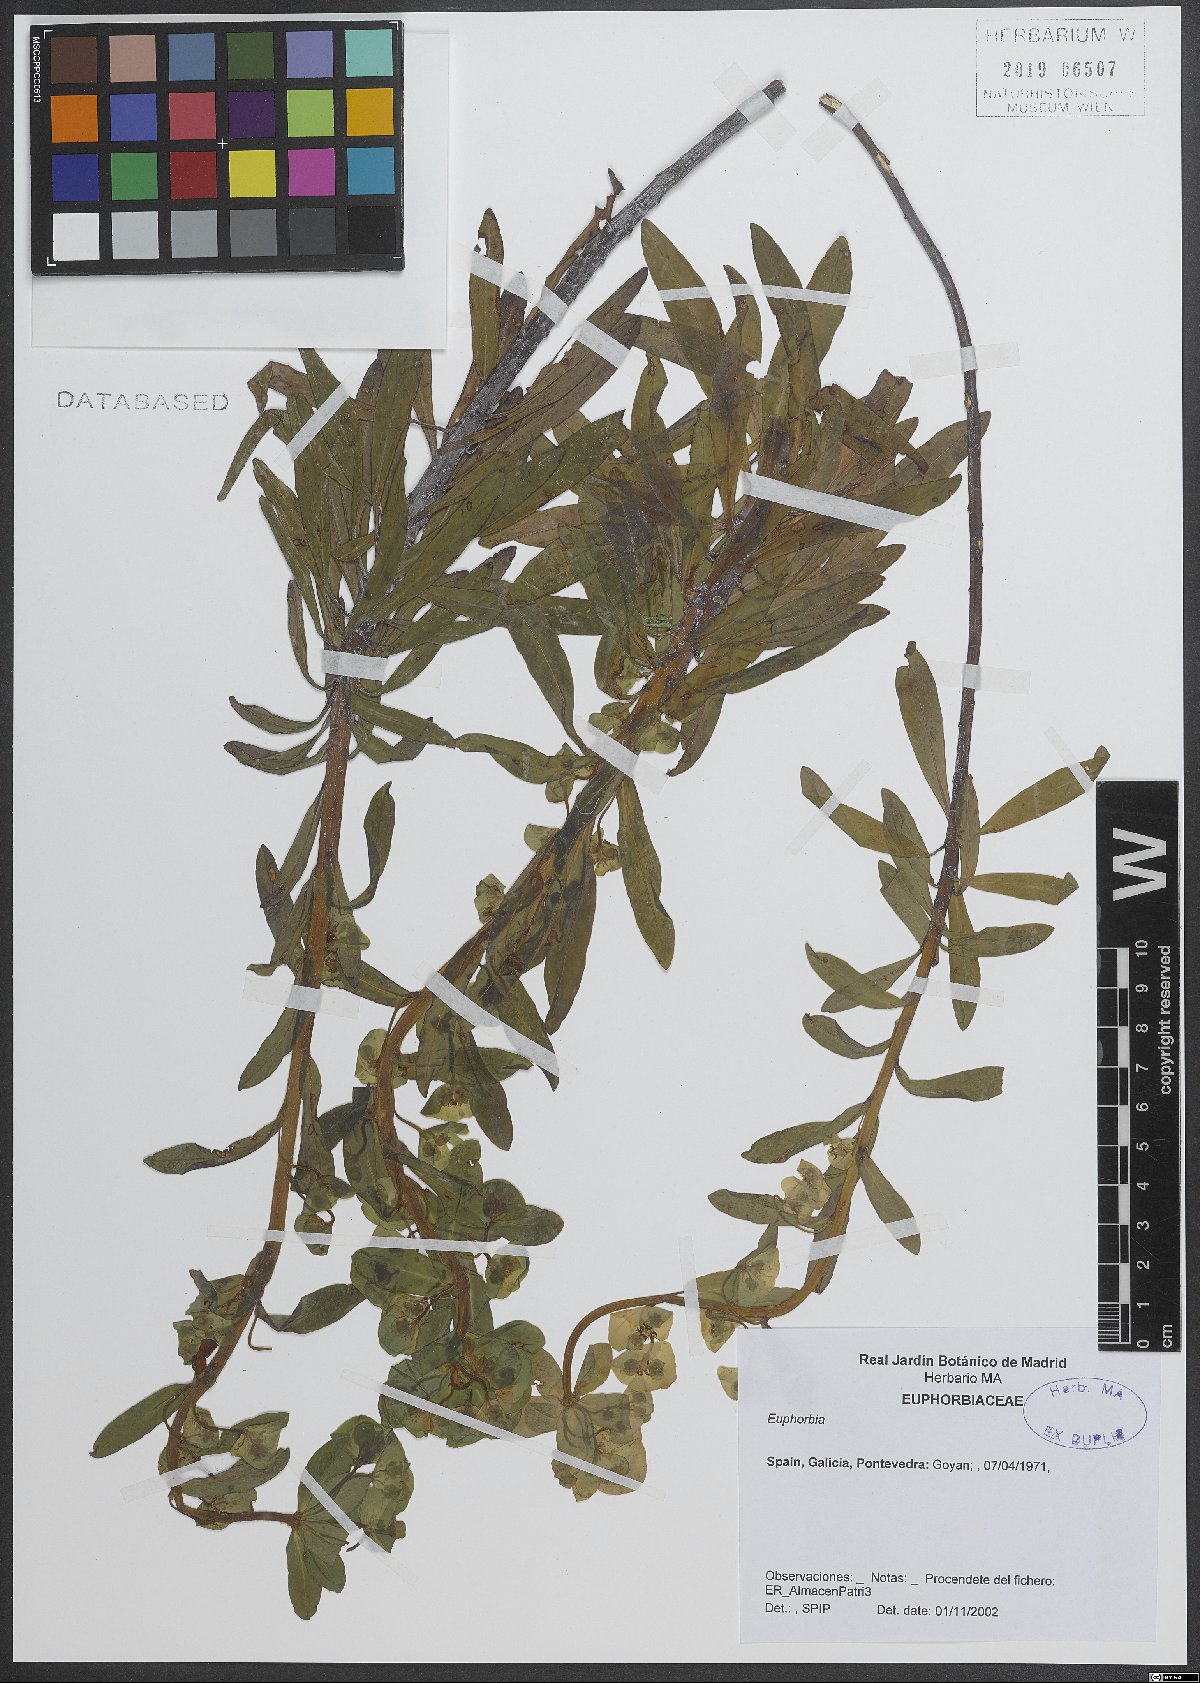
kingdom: Plantae
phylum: Tracheophyta
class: Magnoliopsida
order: Malpighiales
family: Euphorbiaceae
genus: Euphorbia
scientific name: Euphorbia
